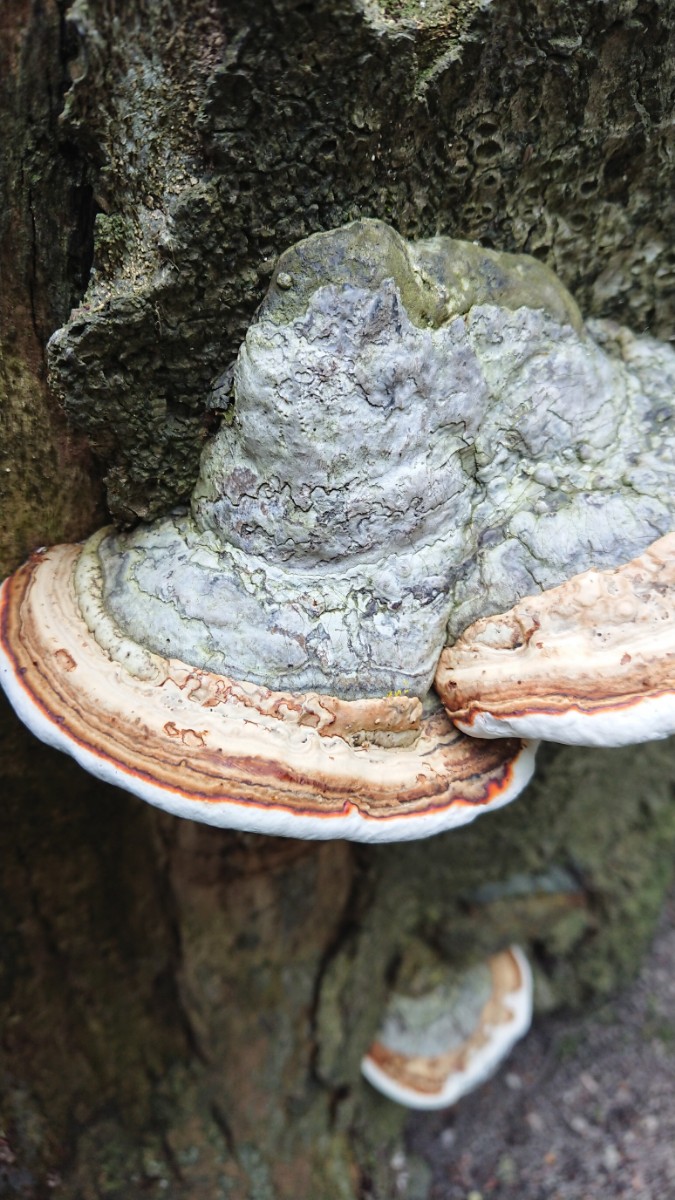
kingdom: Fungi
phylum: Basidiomycota
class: Agaricomycetes
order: Polyporales
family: Polyporaceae
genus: Fomes
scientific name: Fomes fomentarius
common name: tøndersvamp
